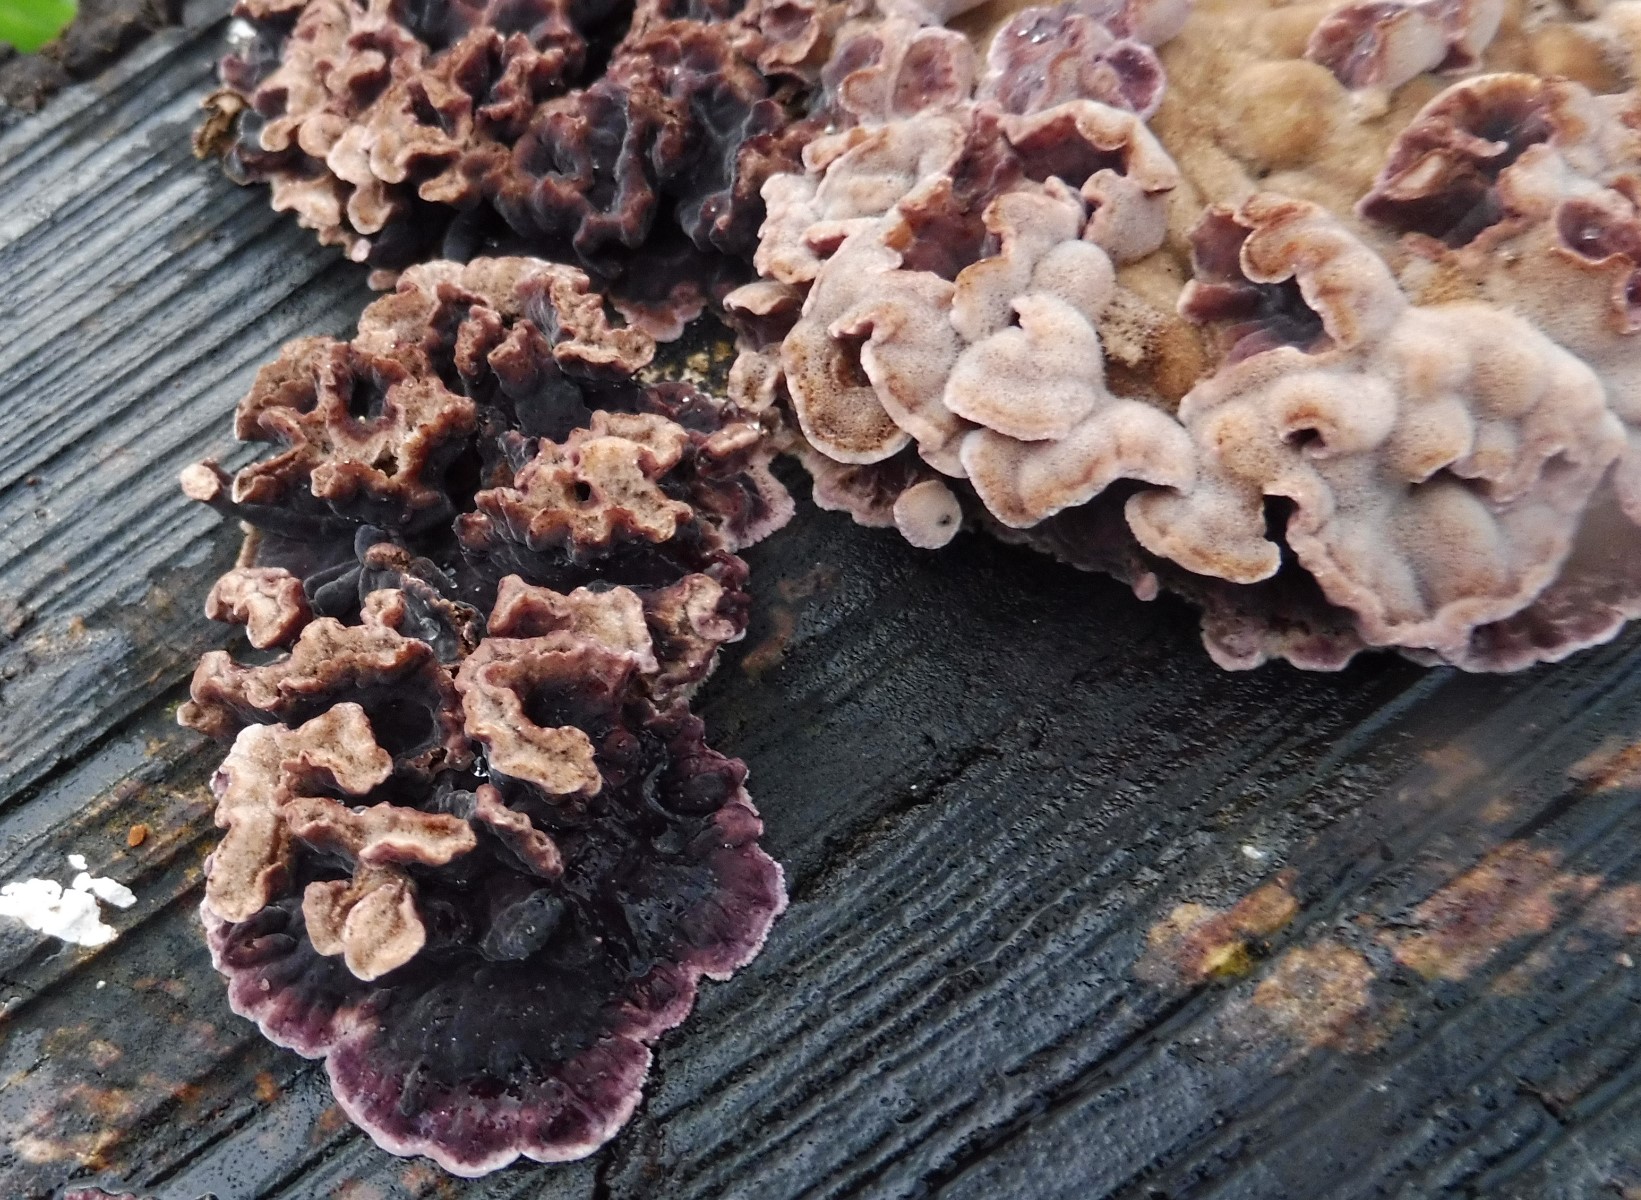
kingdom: Fungi
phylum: Basidiomycota
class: Agaricomycetes
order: Agaricales
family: Cyphellaceae
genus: Chondrostereum
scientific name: Chondrostereum purpureum
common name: purpurlædersvamp
